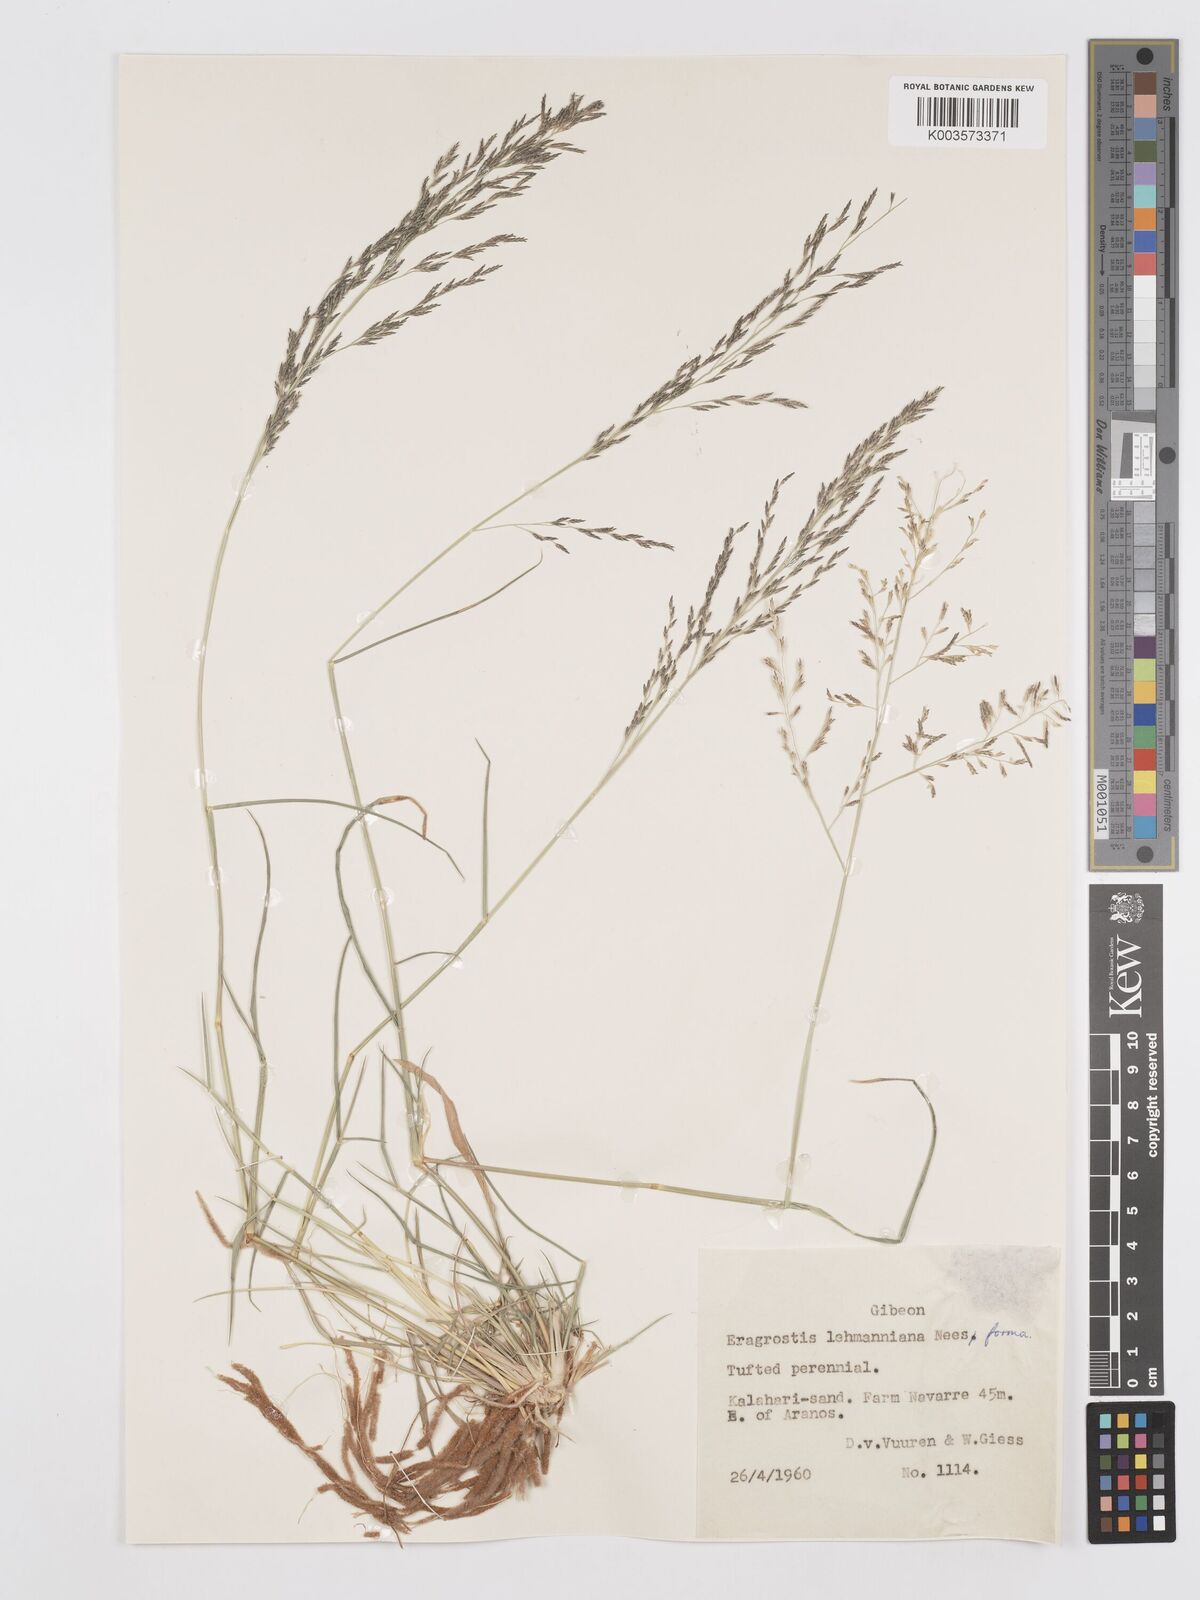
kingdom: Plantae
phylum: Tracheophyta
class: Liliopsida
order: Poales
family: Poaceae
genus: Eragrostis
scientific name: Eragrostis lehmanniana
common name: Lehmann lovegrass
